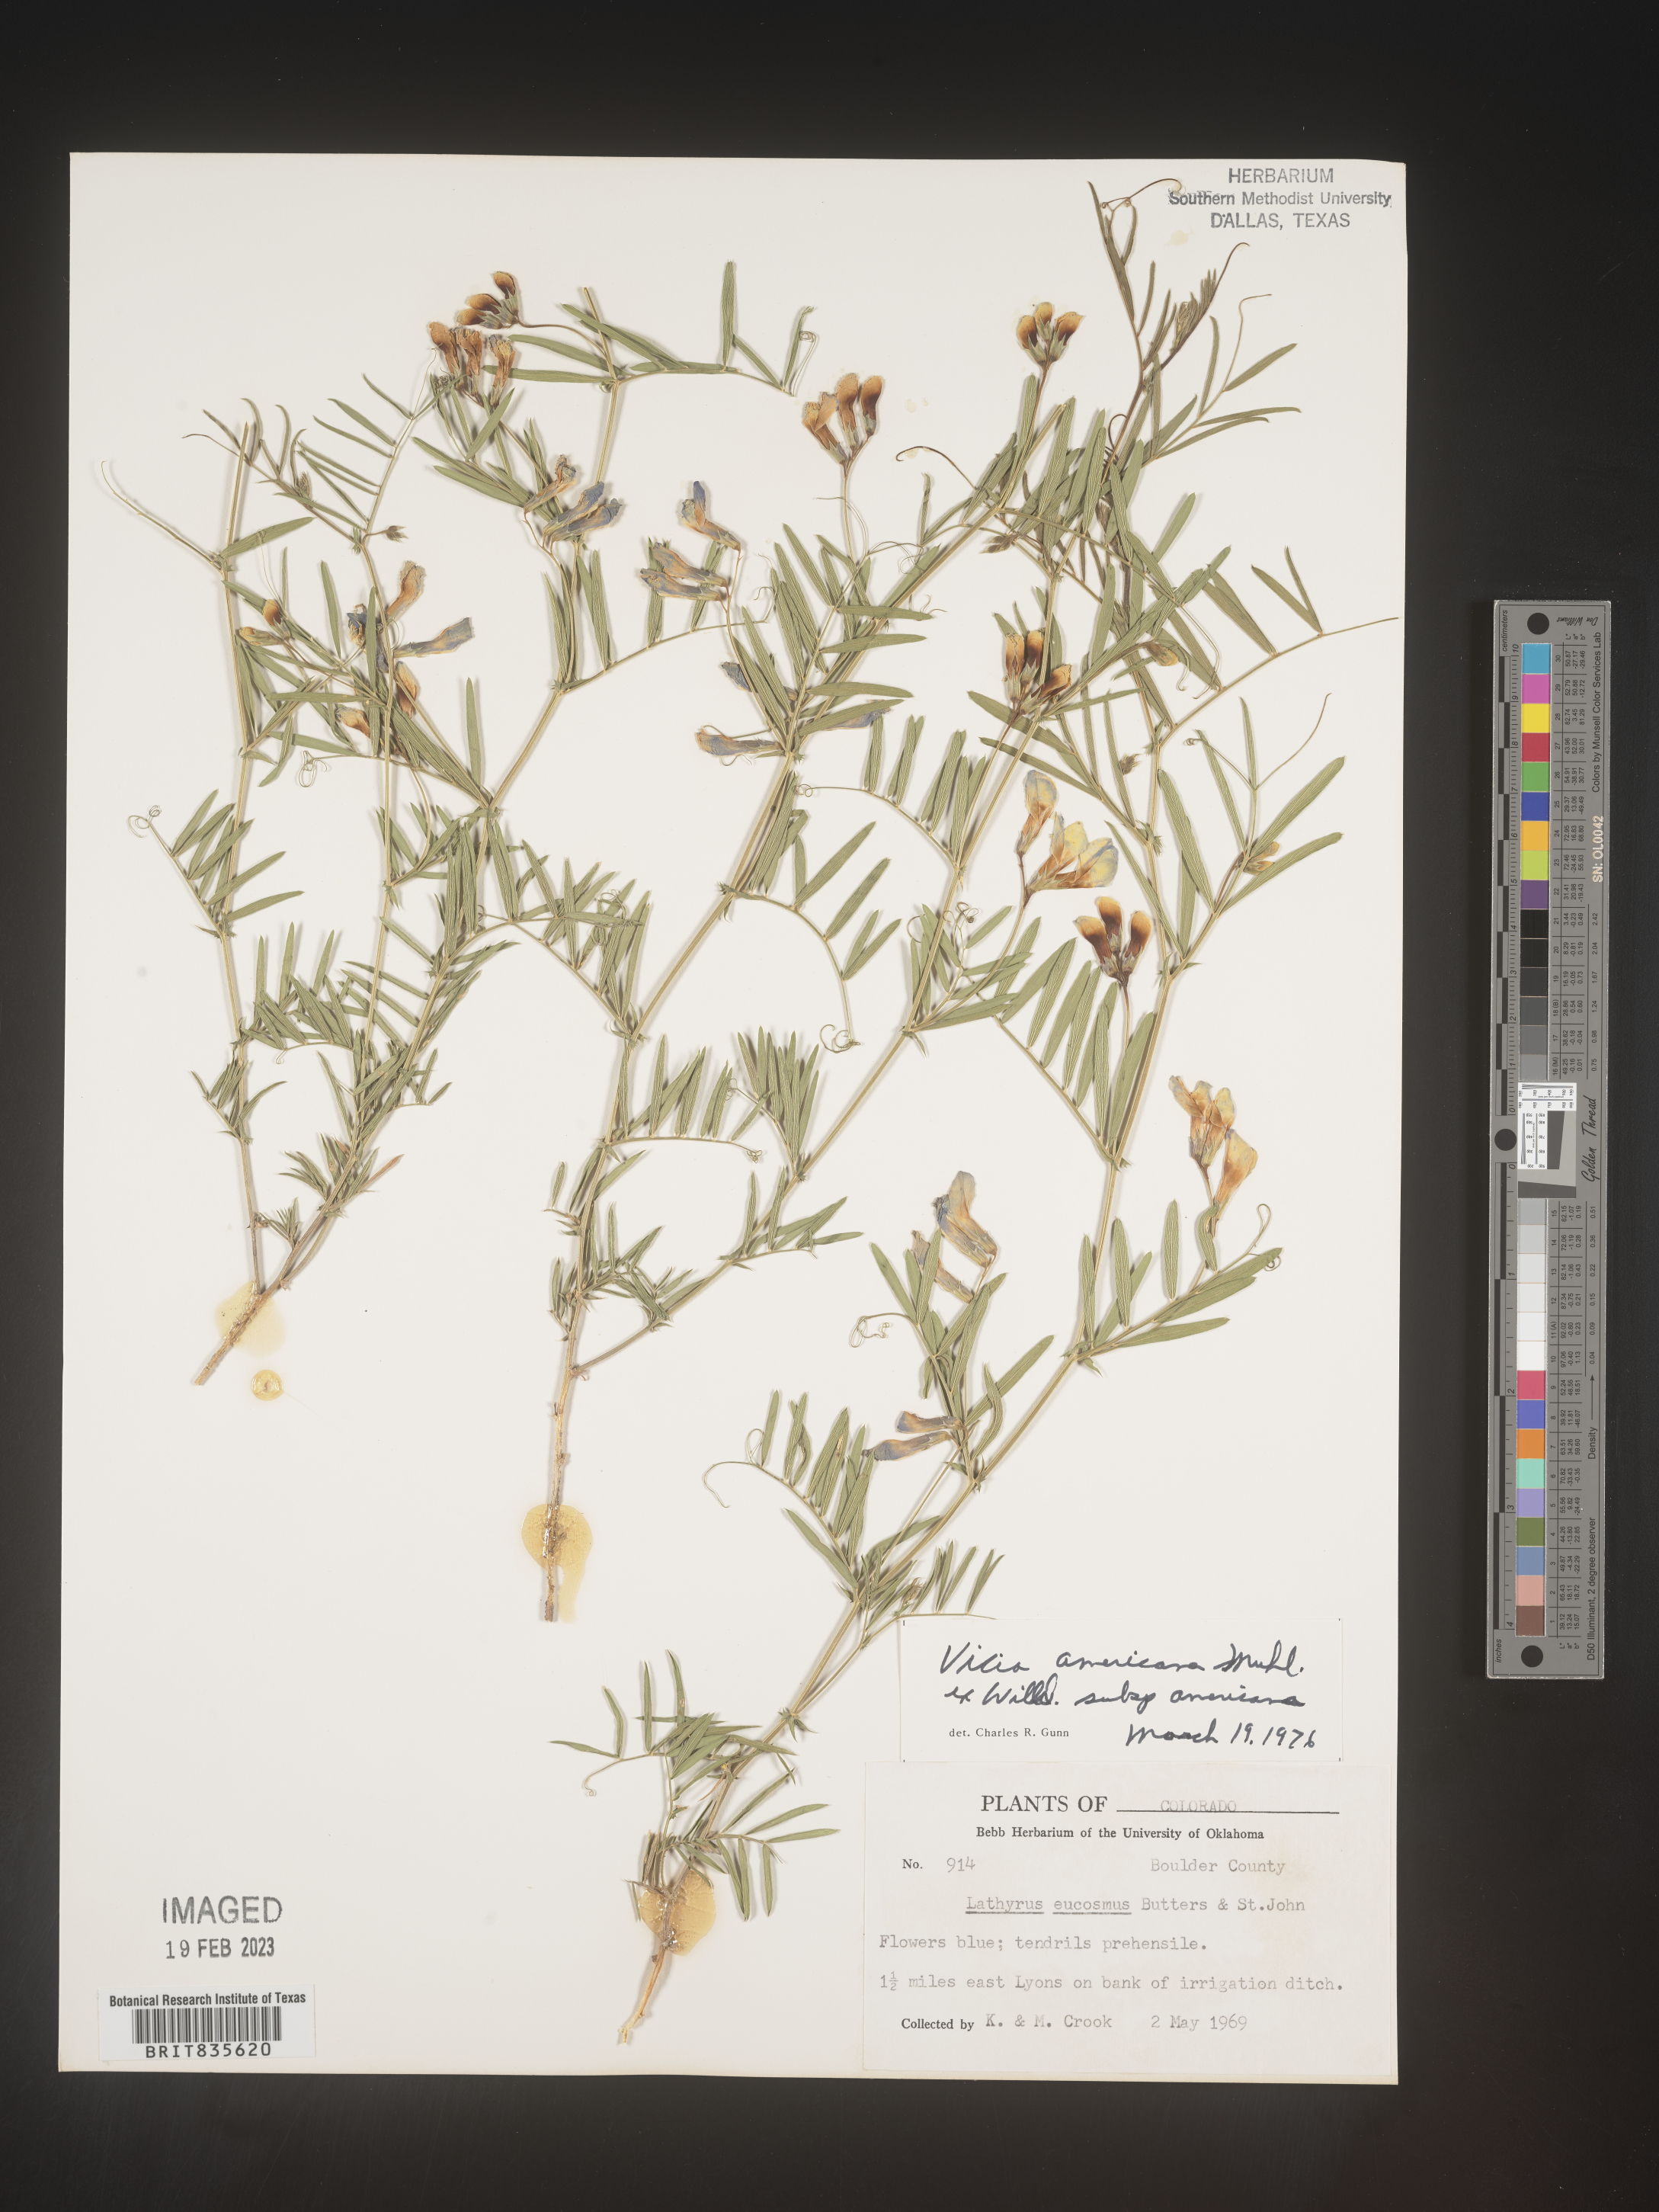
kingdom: Plantae
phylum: Tracheophyta
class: Magnoliopsida
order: Fabales
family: Fabaceae
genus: Vicia
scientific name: Vicia americana
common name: American vetch
